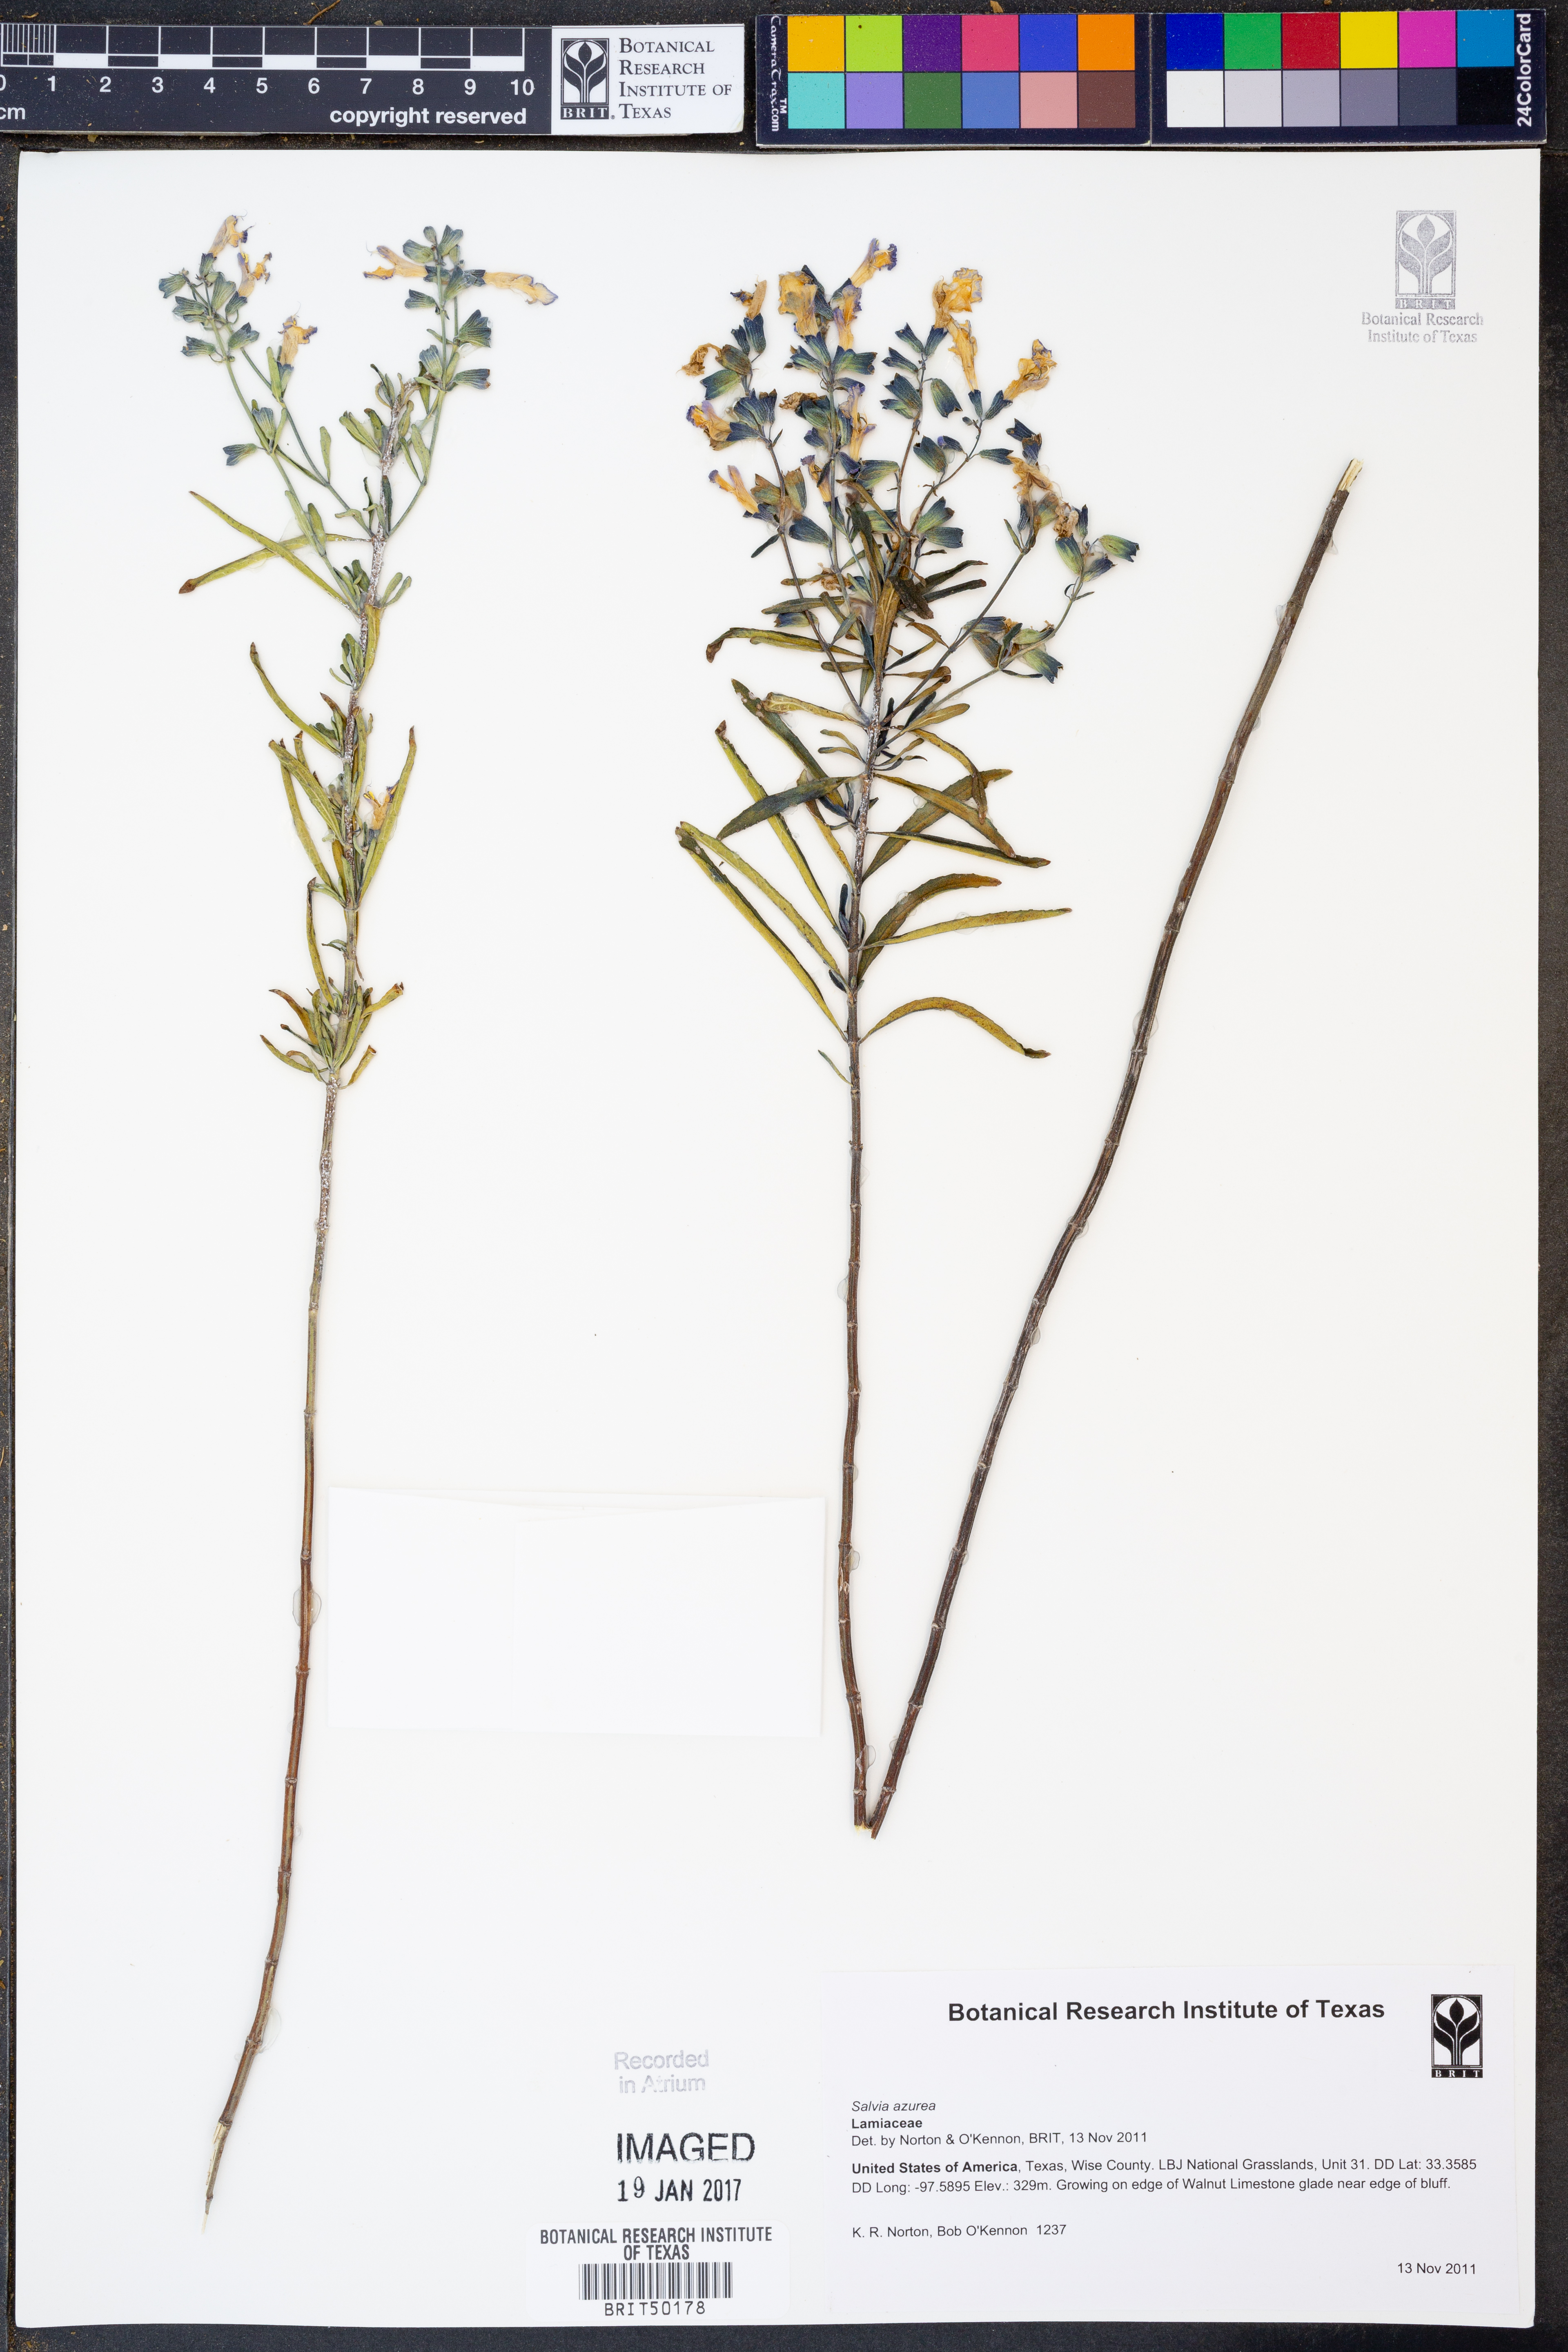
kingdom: Plantae
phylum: Tracheophyta
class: Magnoliopsida
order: Lamiales
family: Lamiaceae
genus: Salvia
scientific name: Salvia azurea
